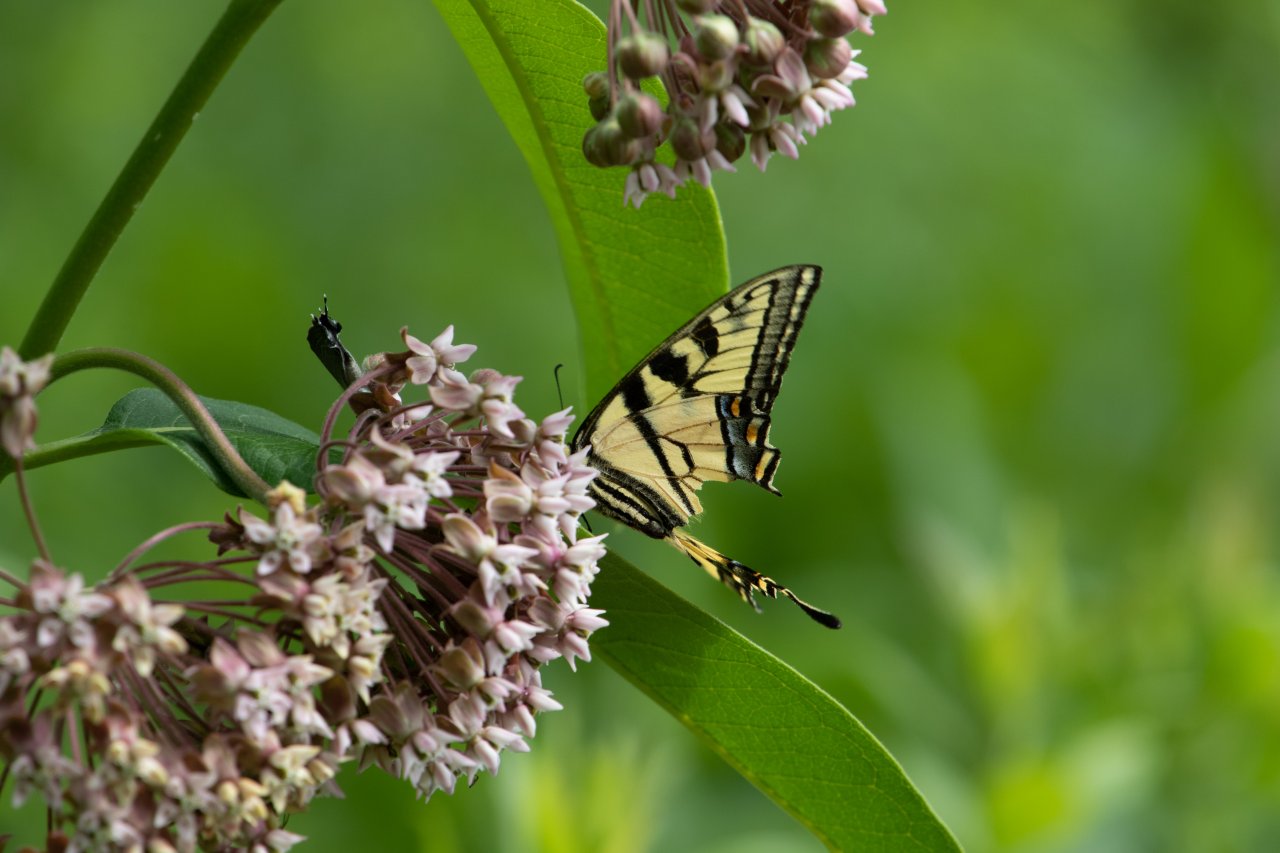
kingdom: Animalia
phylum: Arthropoda
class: Insecta
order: Lepidoptera
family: Papilionidae
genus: Pterourus
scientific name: Pterourus
